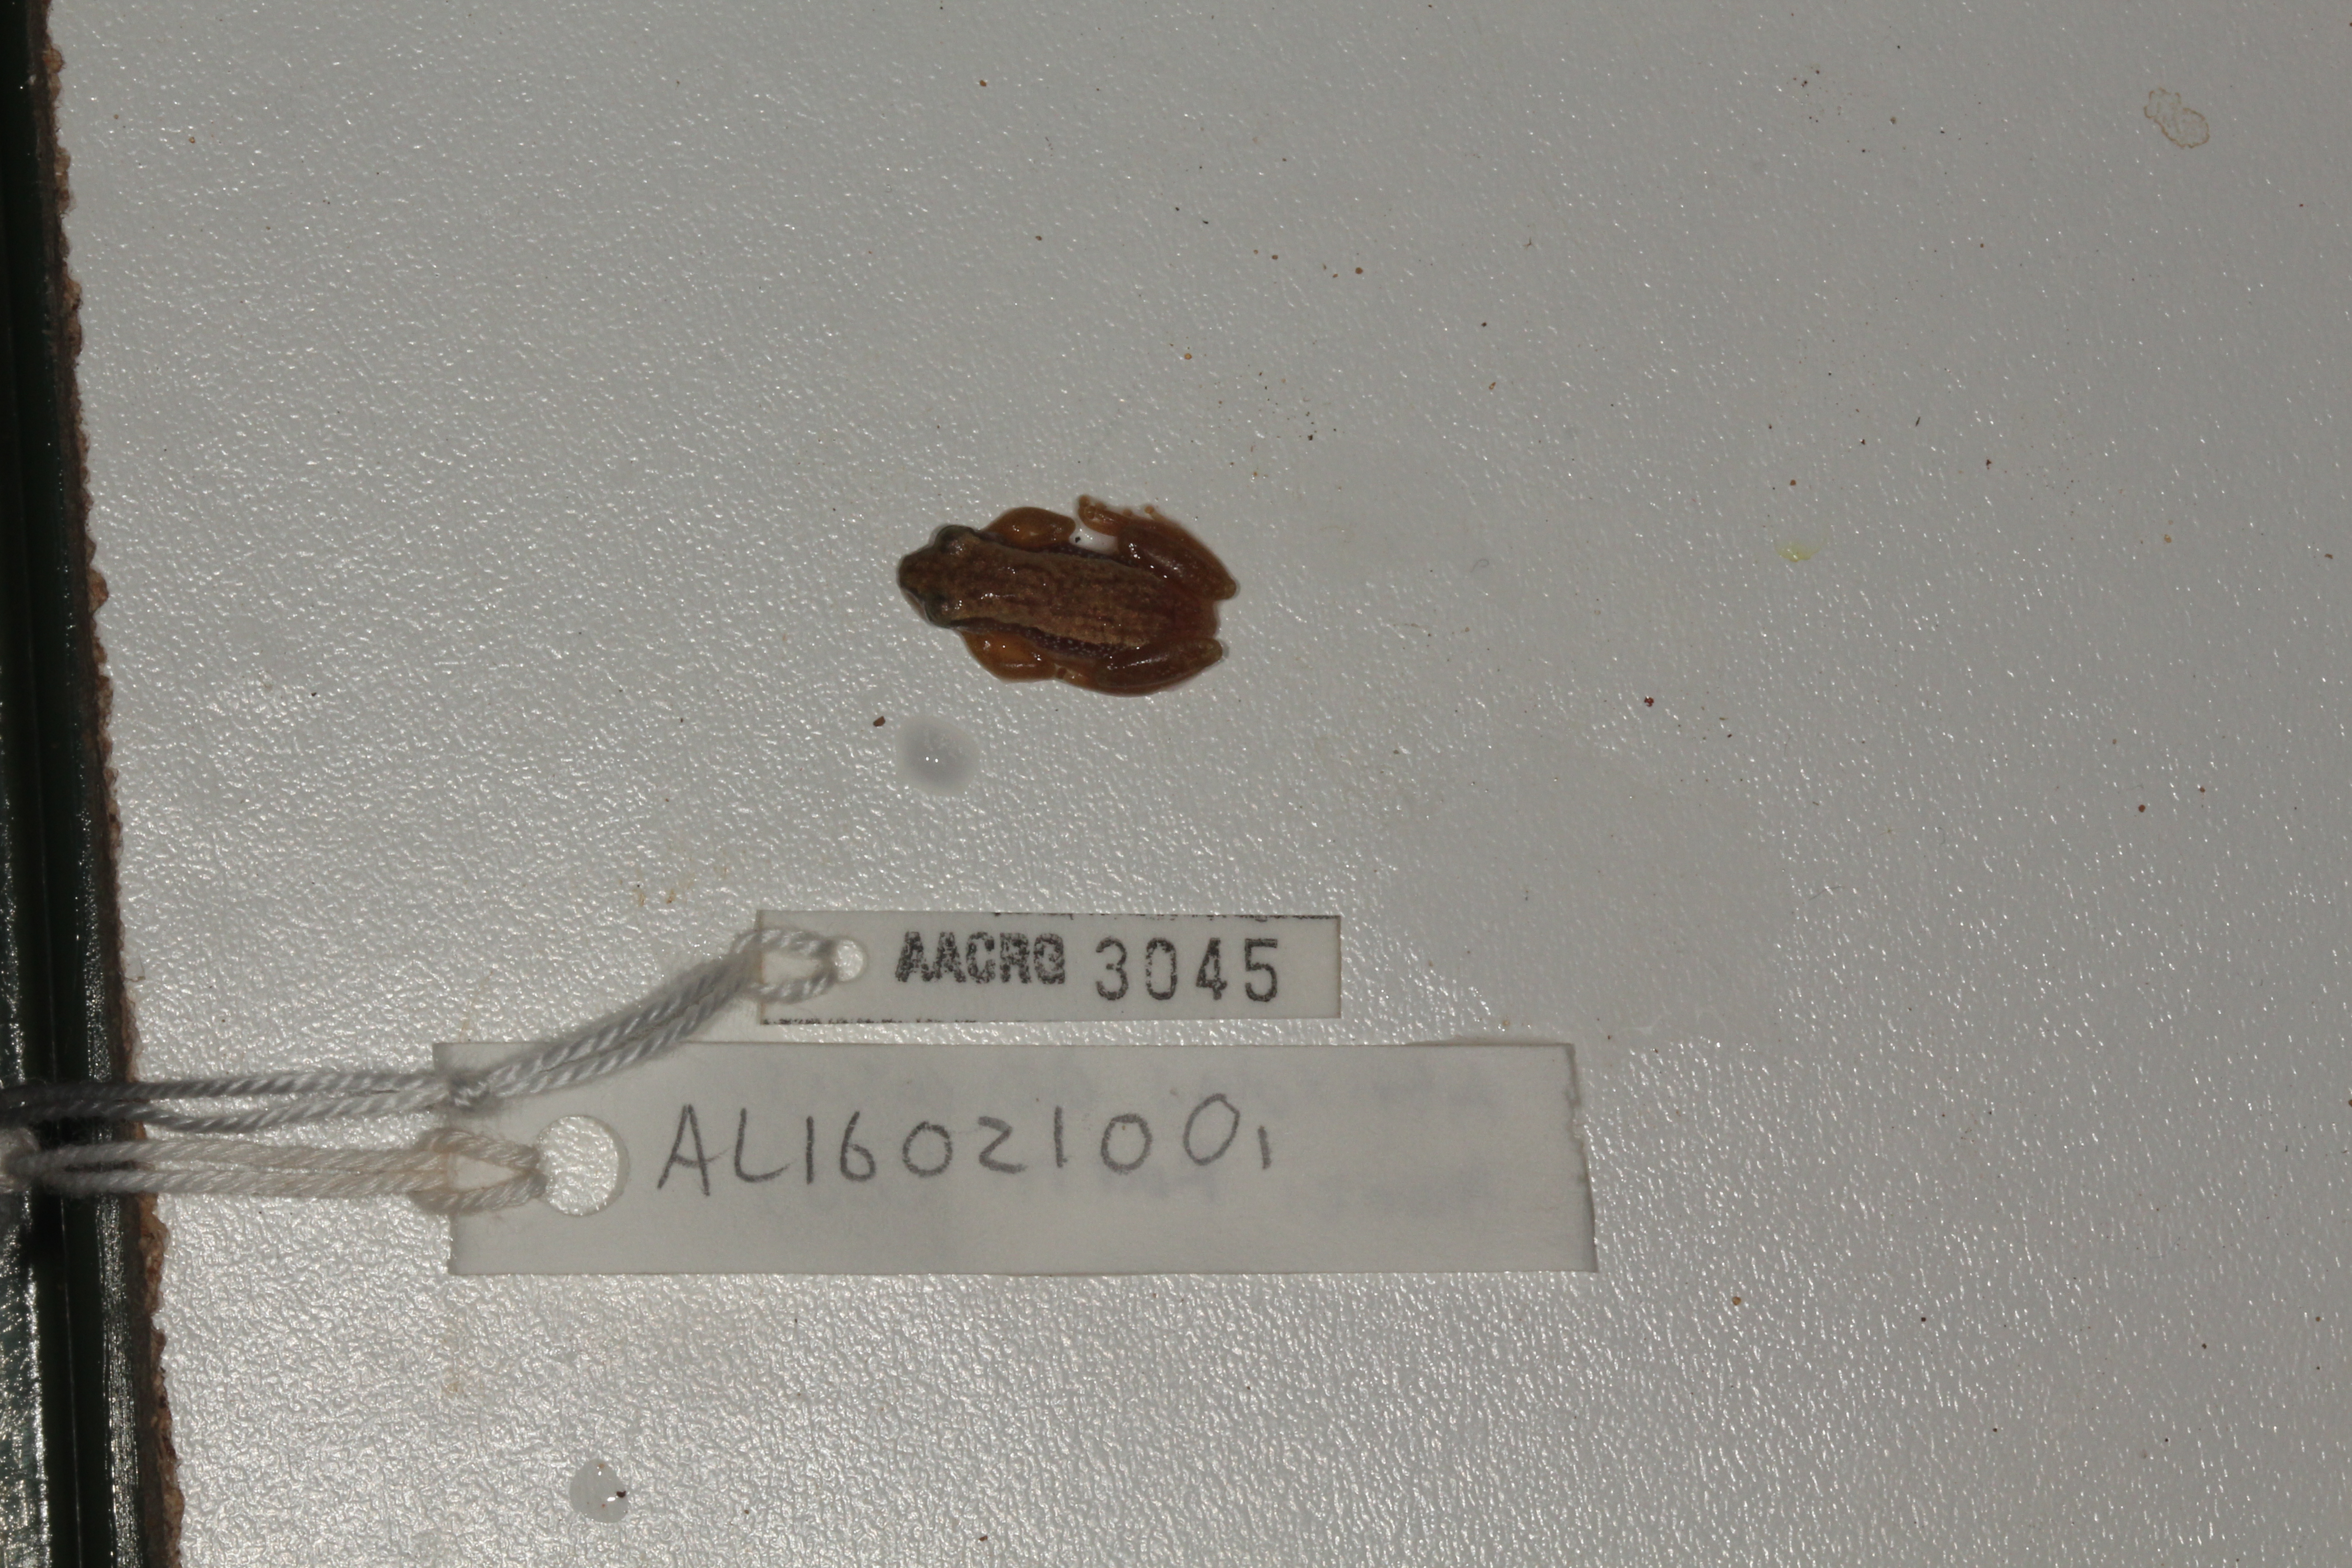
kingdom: Animalia
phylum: Chordata
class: Amphibia
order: Anura
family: Hyperoliidae
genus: Afrixalus
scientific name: Afrixalus delicatus
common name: Delicate leaf-folding frog
